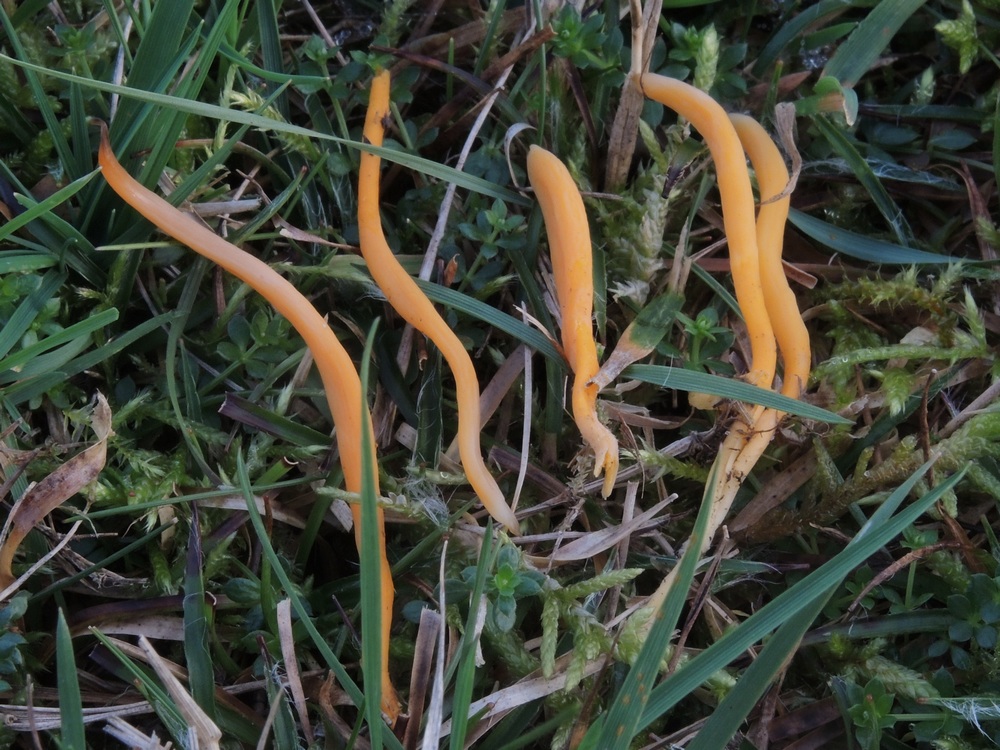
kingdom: Fungi
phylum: Basidiomycota
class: Agaricomycetes
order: Agaricales
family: Clavariaceae
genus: Clavulinopsis
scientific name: Clavulinopsis luteoalba
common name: abrikos-køllesvamp
